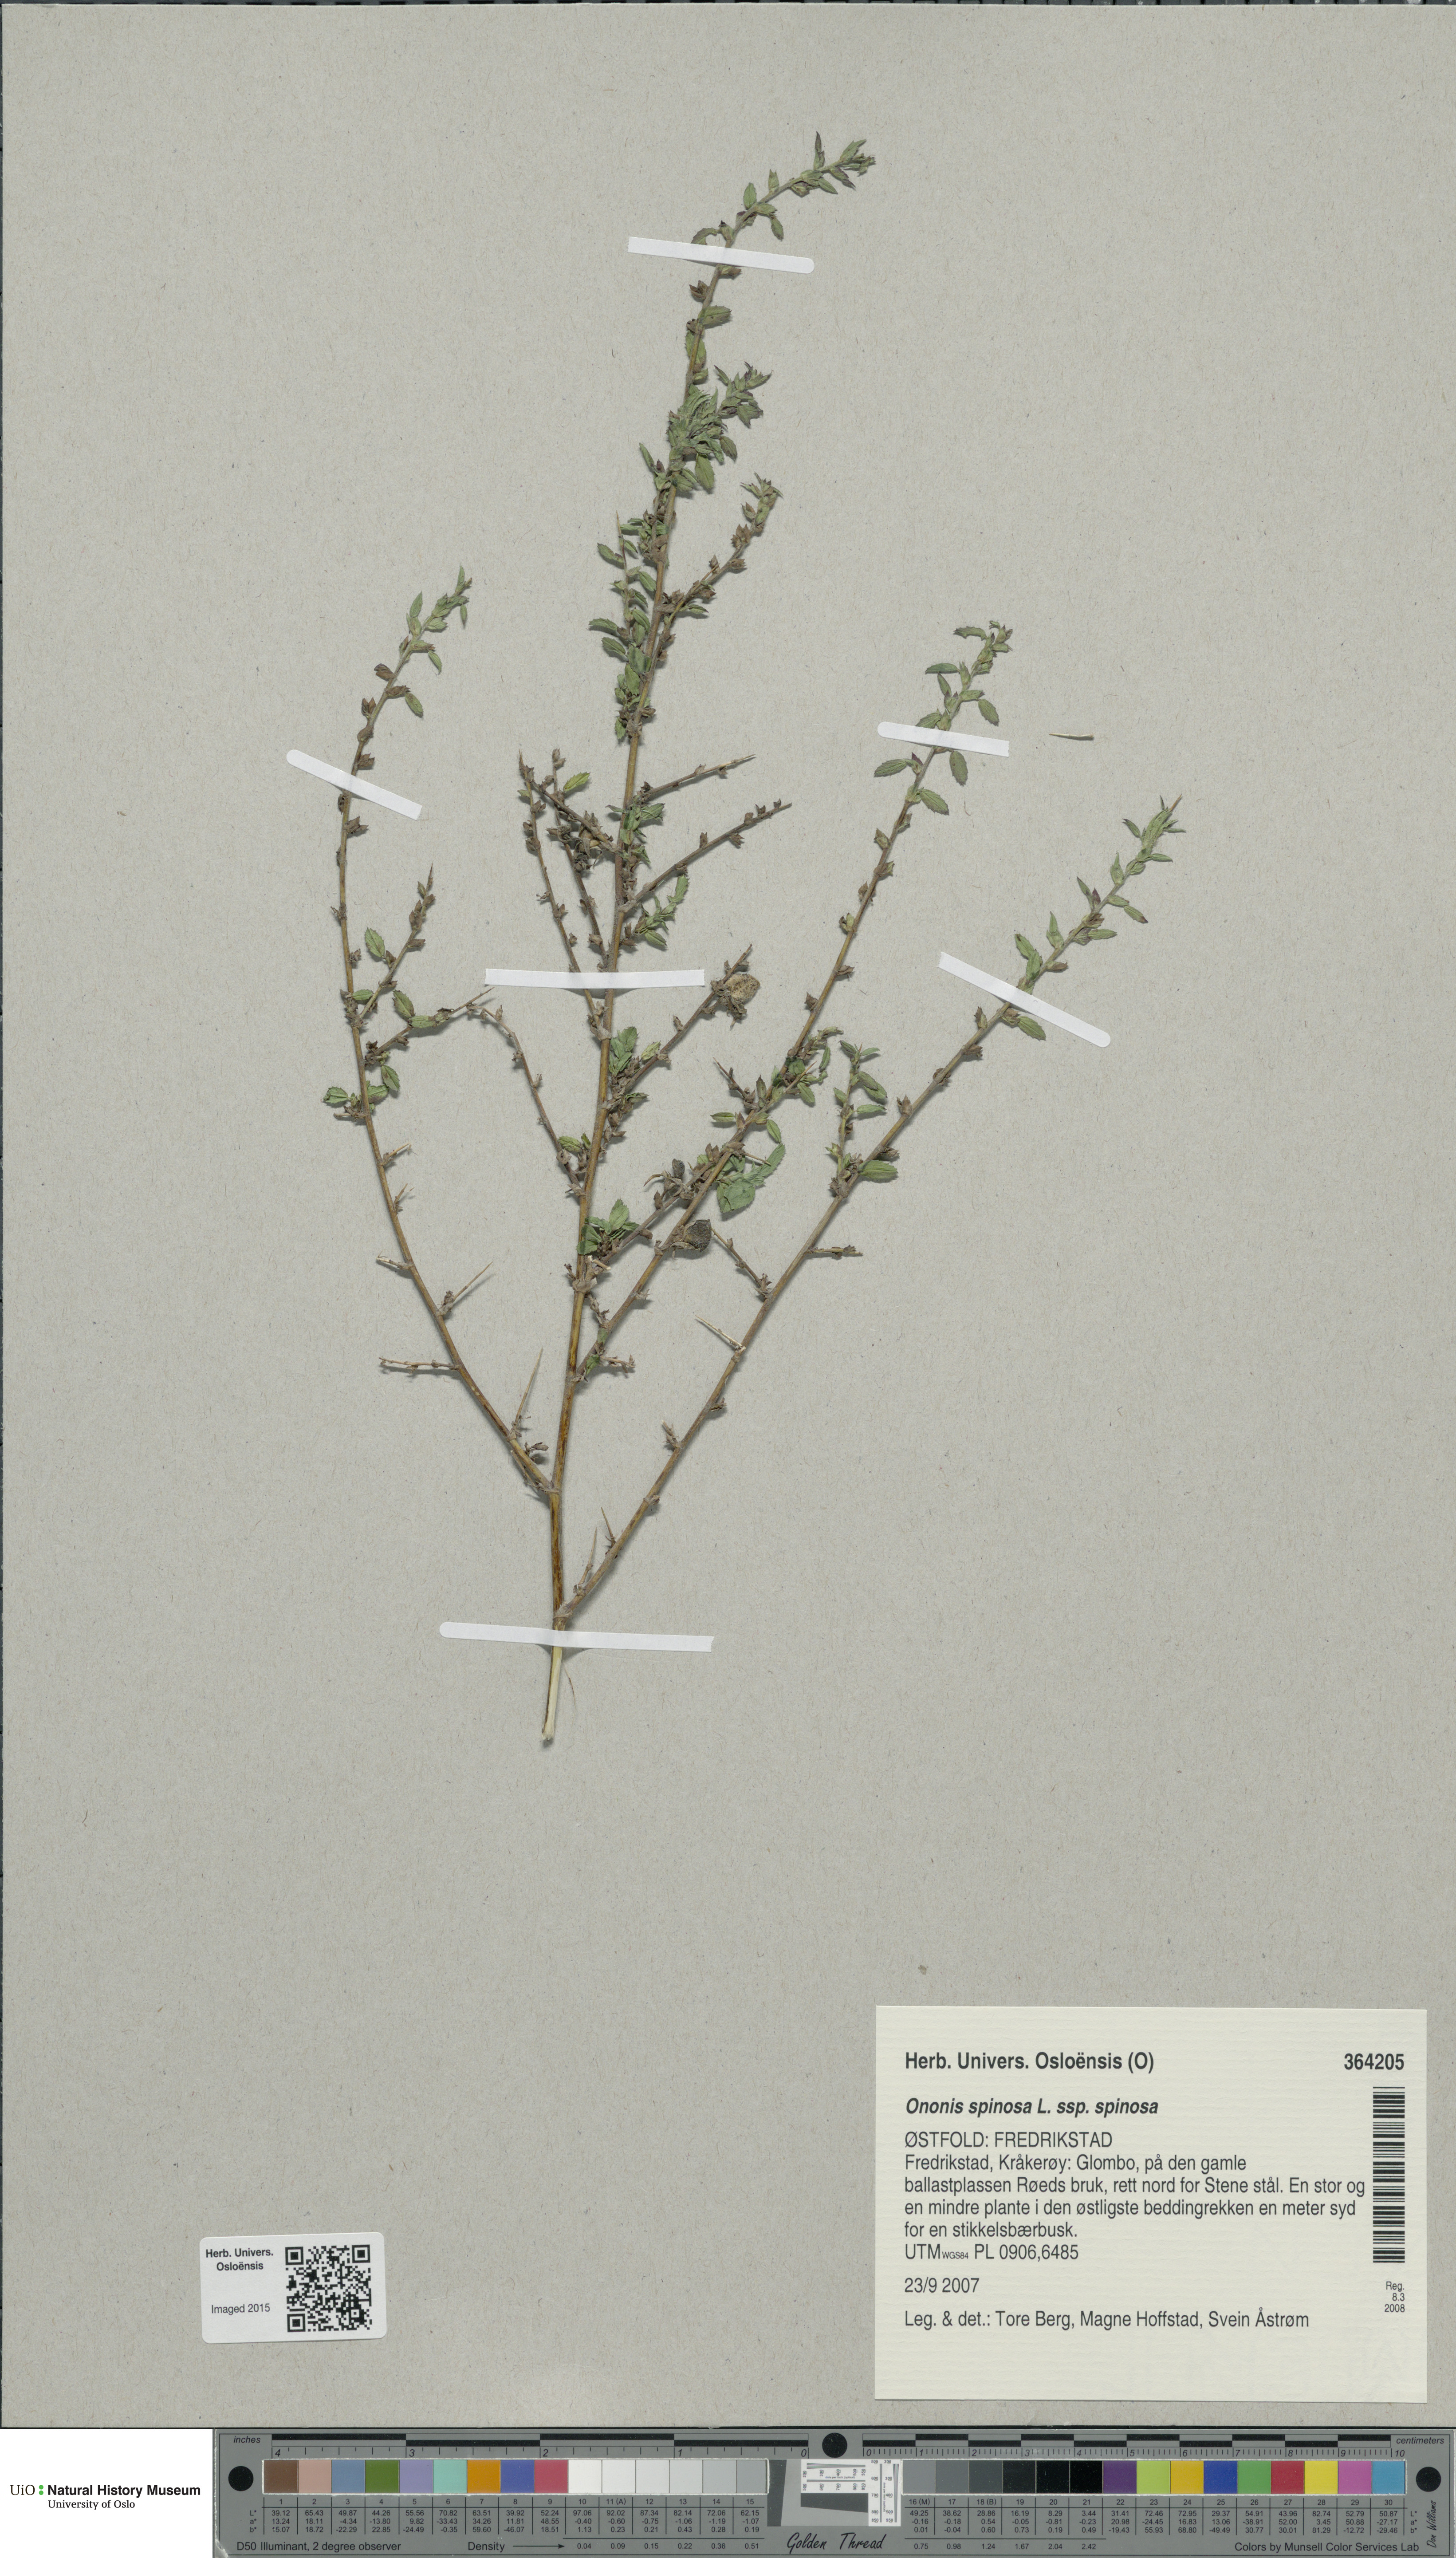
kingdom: Plantae
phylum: Tracheophyta
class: Magnoliopsida
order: Fabales
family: Fabaceae
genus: Ononis
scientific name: Ononis spinosa
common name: Spiny restharrow
